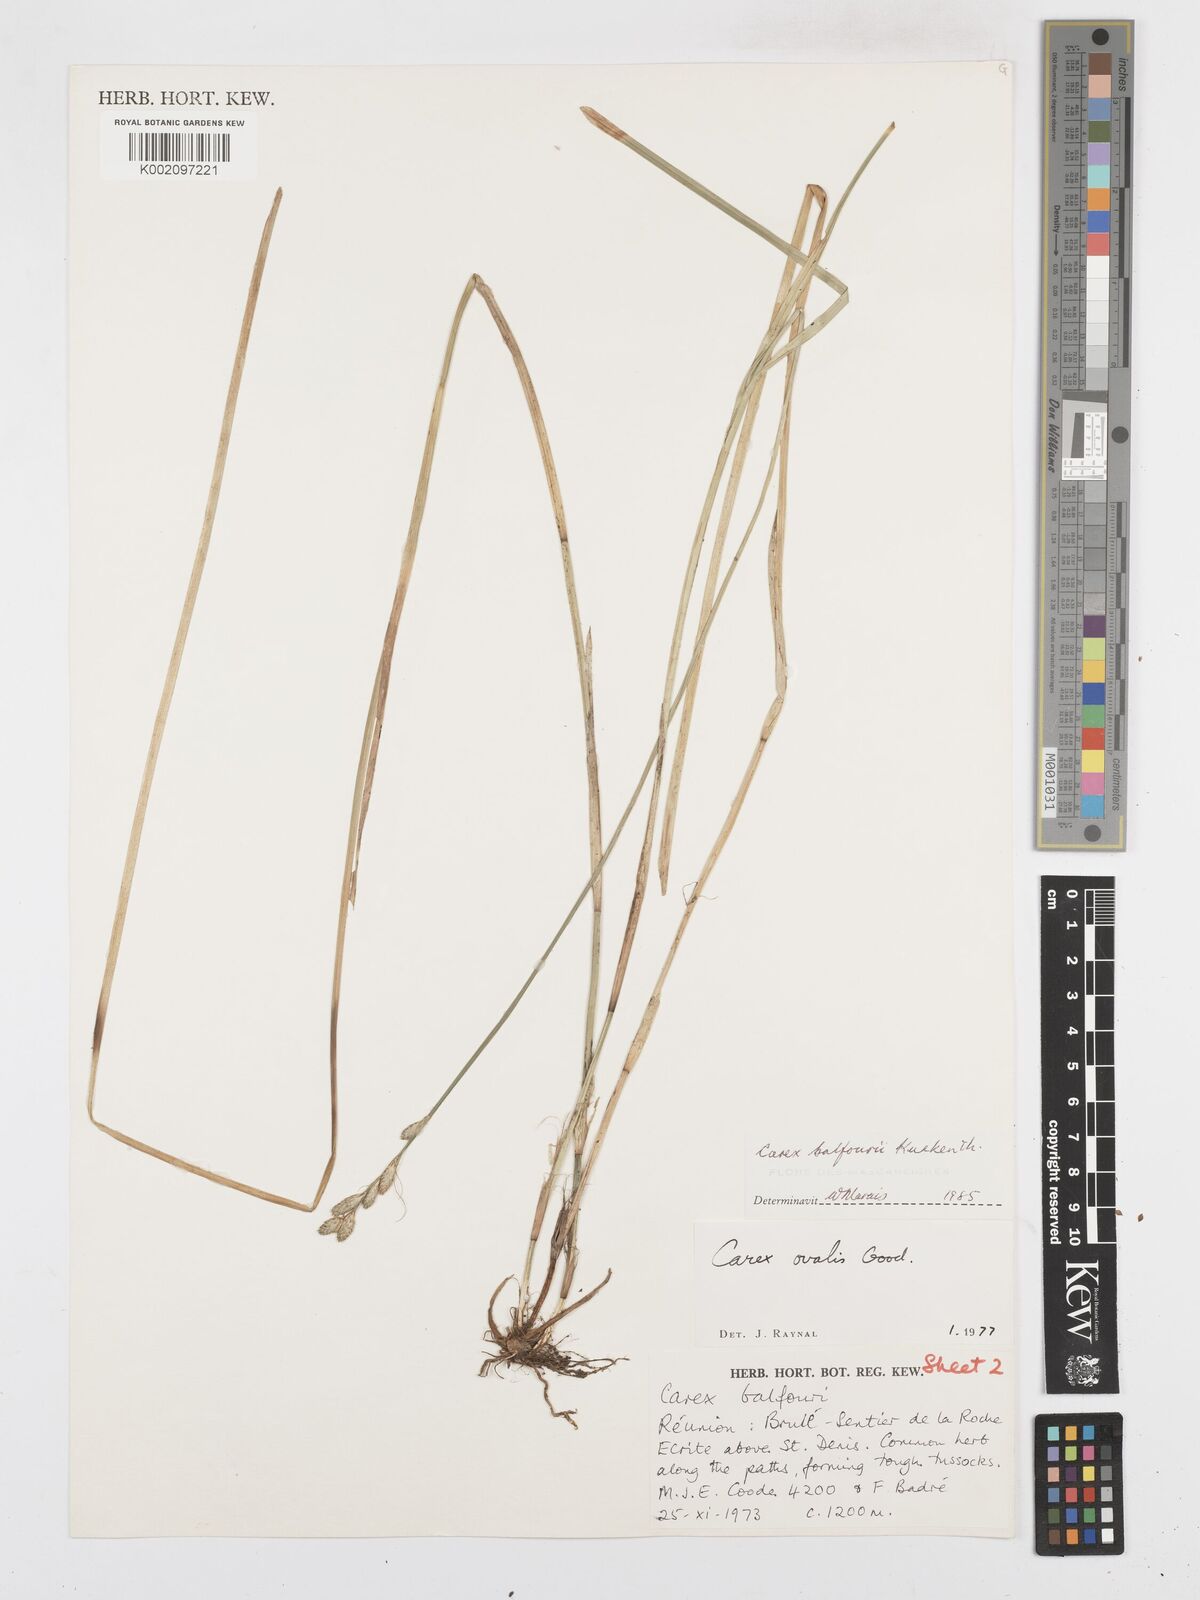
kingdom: Plantae
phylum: Tracheophyta
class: Liliopsida
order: Poales
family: Cyperaceae
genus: Carex
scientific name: Carex balfourii
